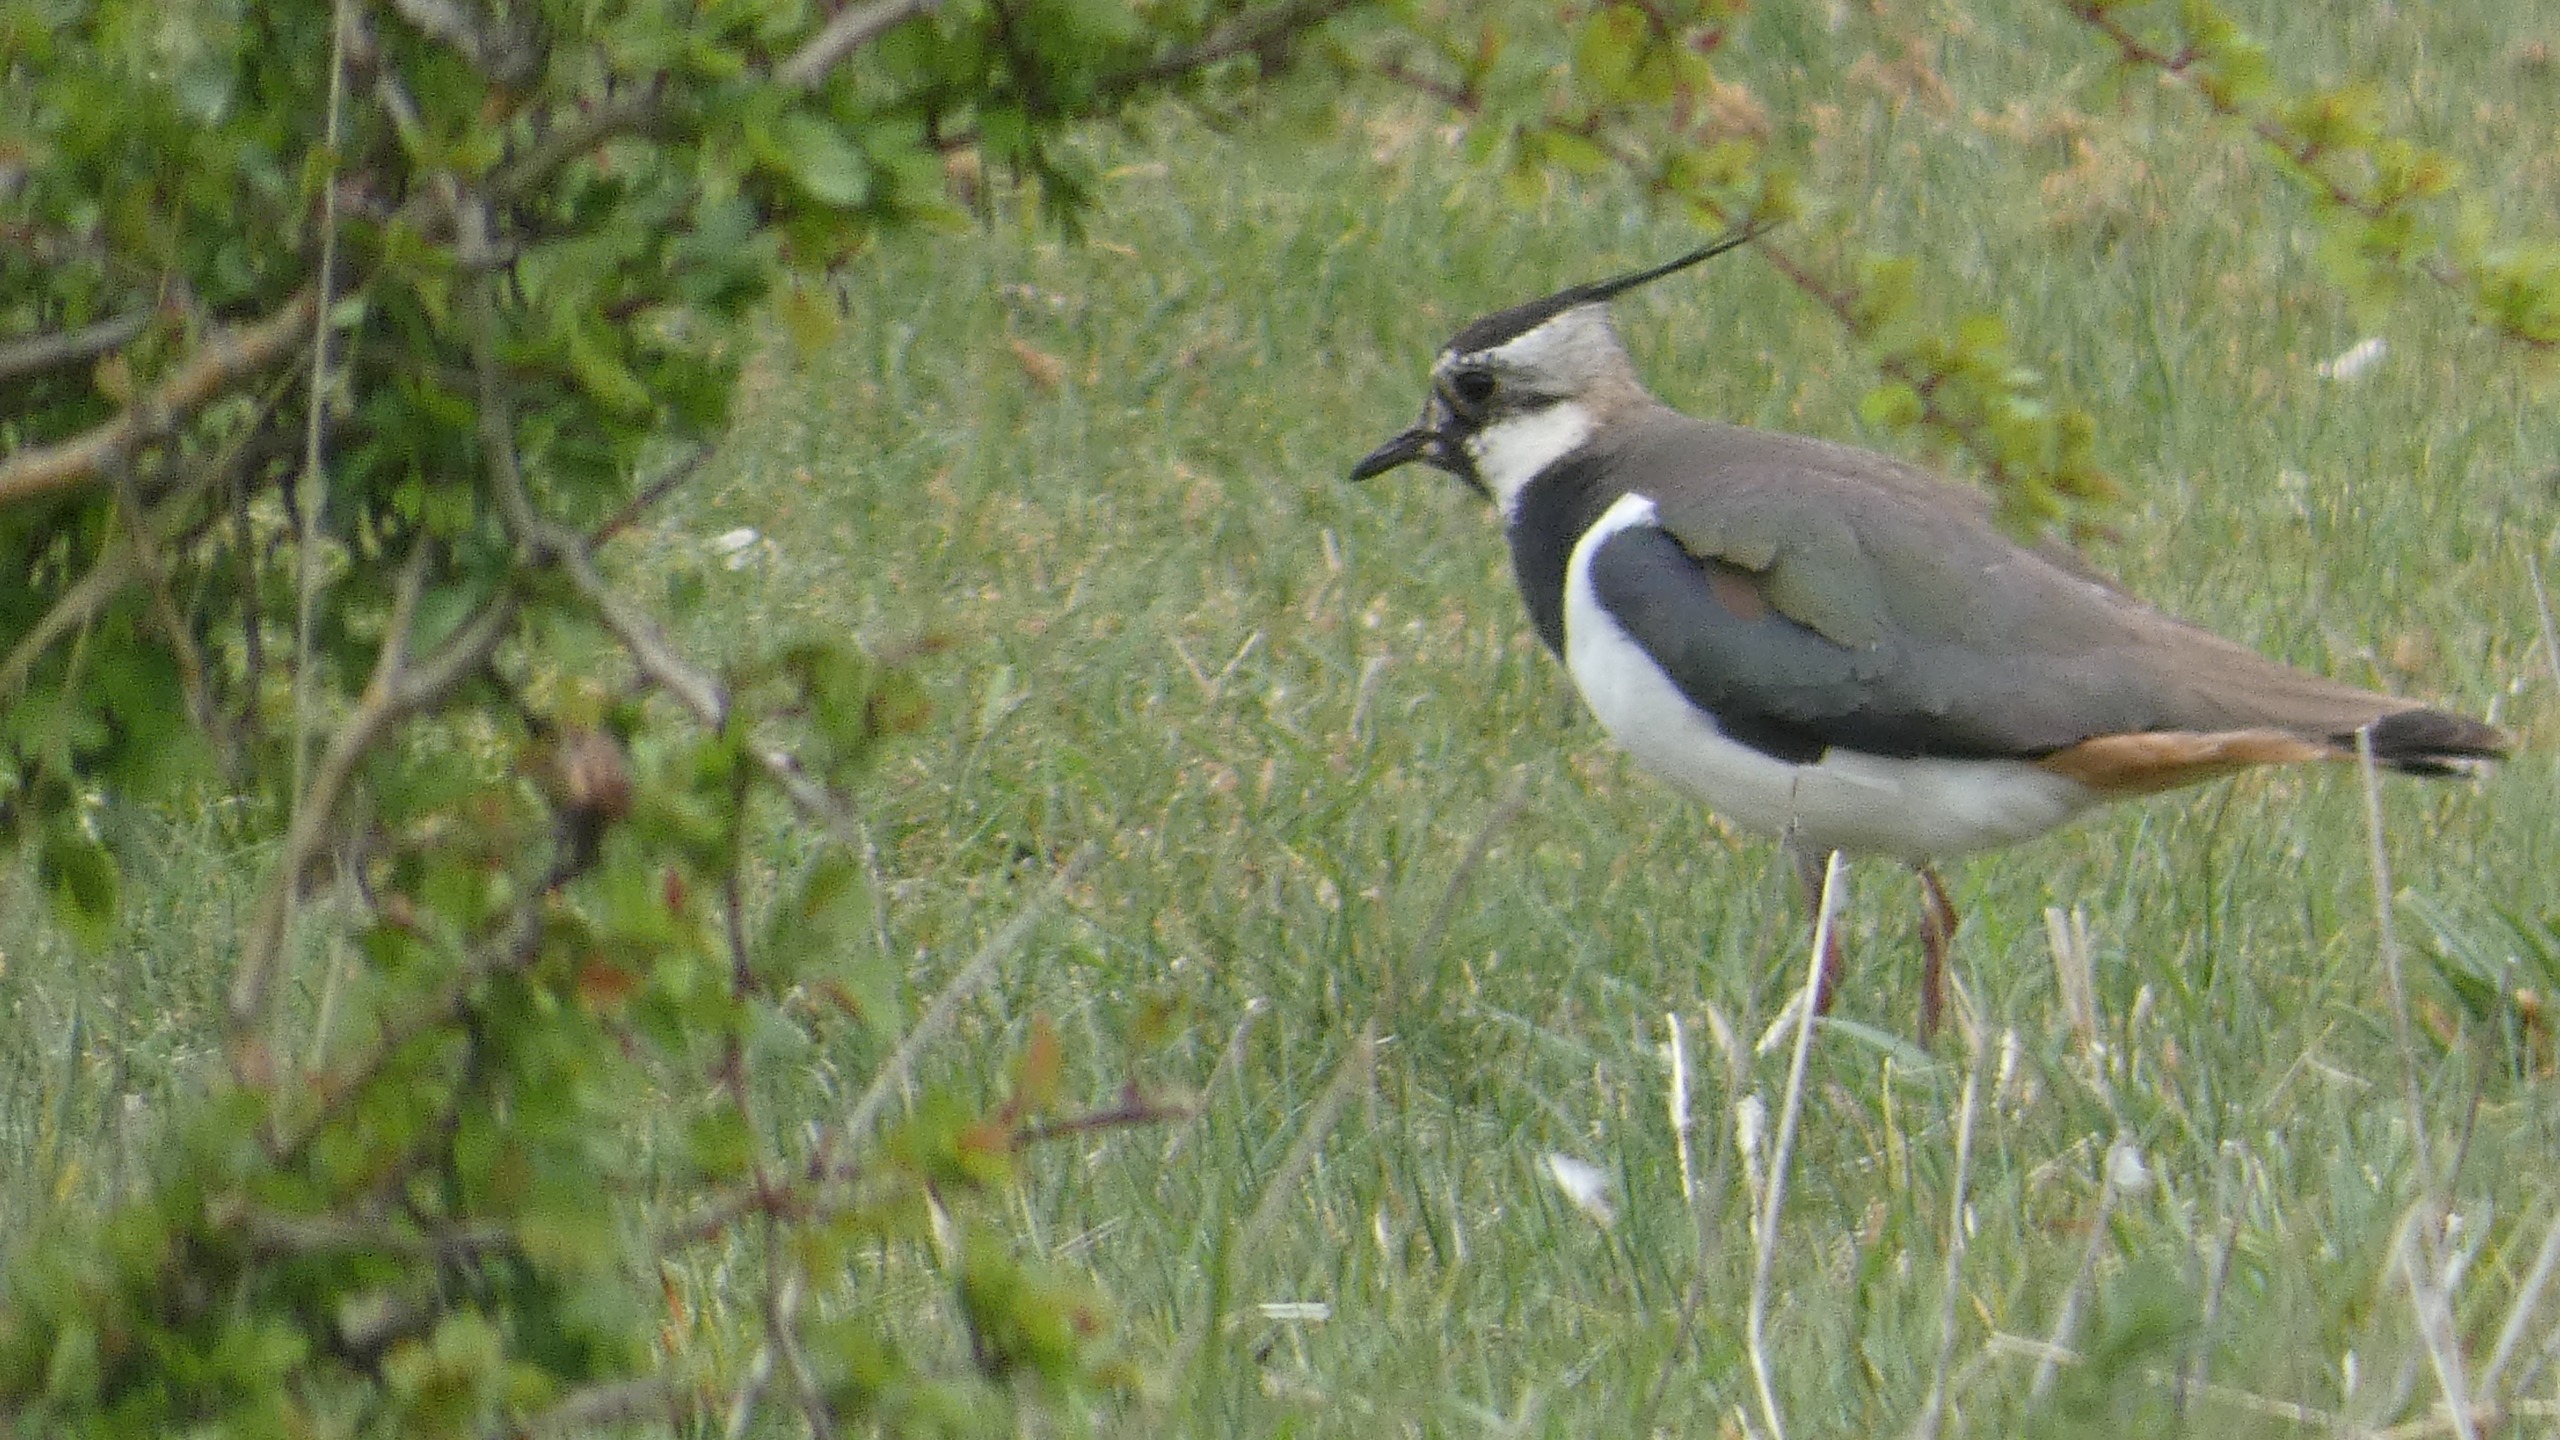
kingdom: Animalia
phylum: Chordata
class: Aves
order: Charadriiformes
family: Charadriidae
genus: Vanellus
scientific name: Vanellus vanellus
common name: Vibe
